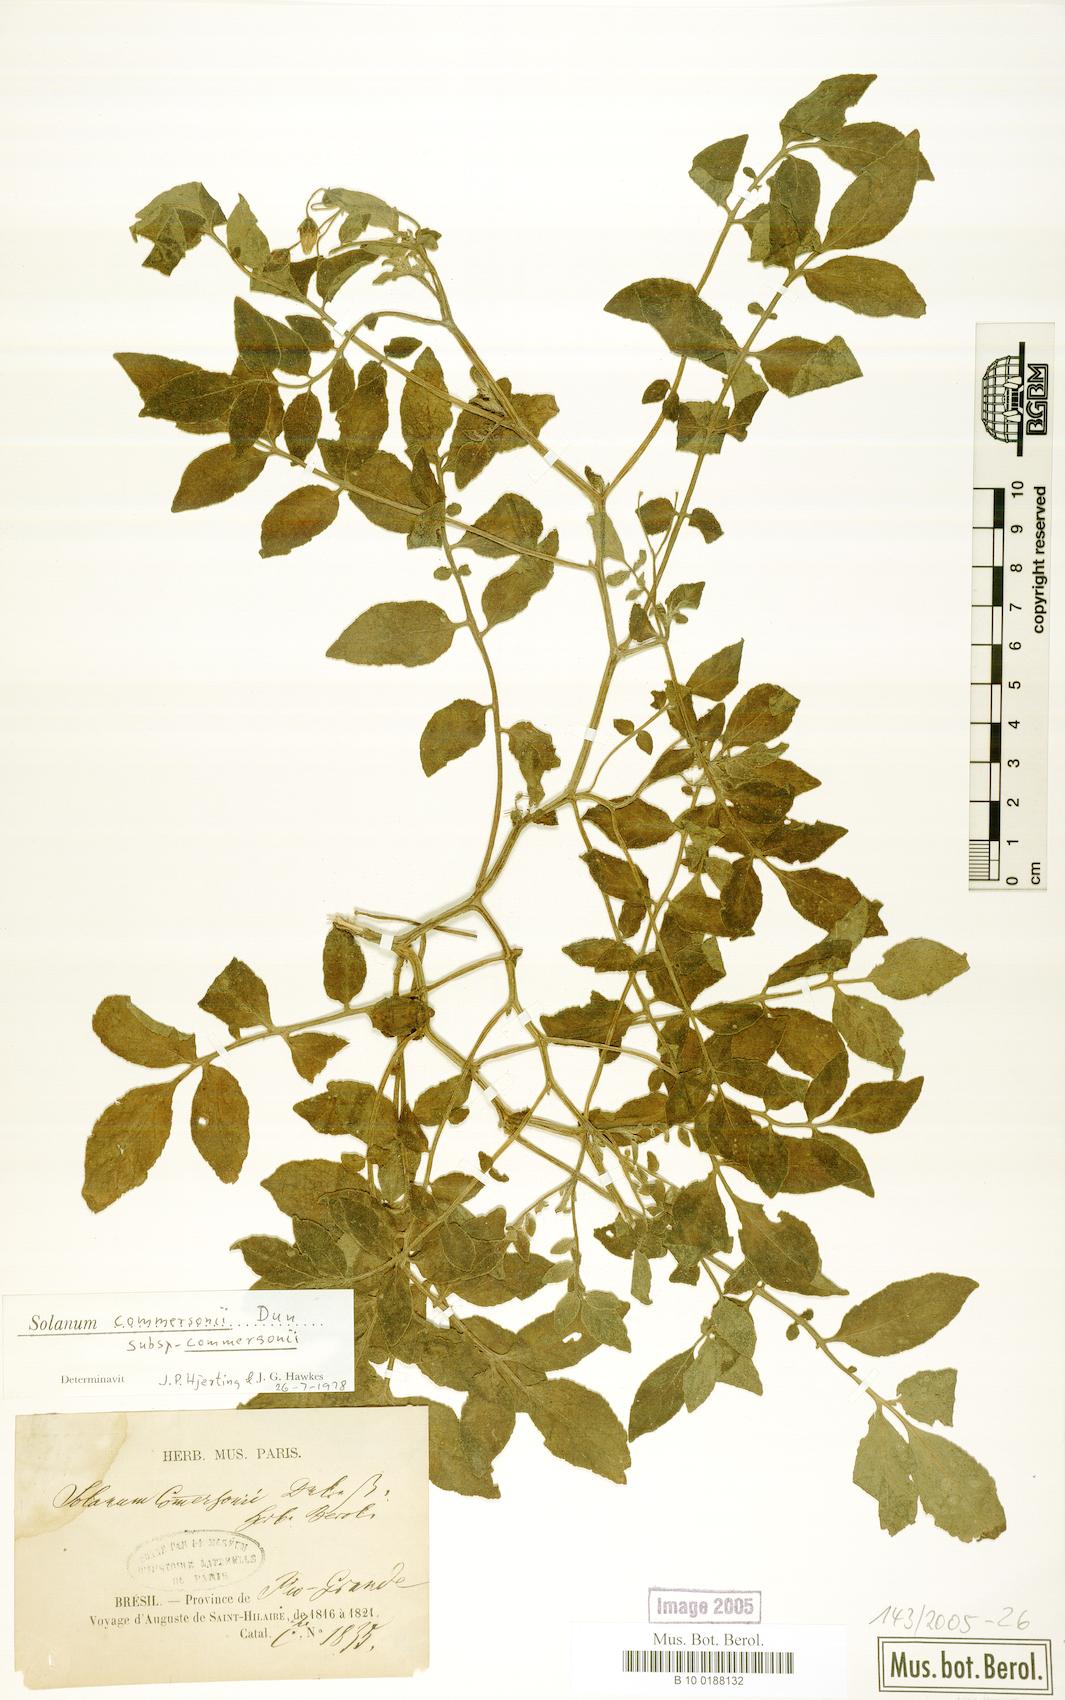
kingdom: Plantae
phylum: Tracheophyta
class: Magnoliopsida
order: Solanales
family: Solanaceae
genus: Solanum
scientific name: Solanum commersonii
